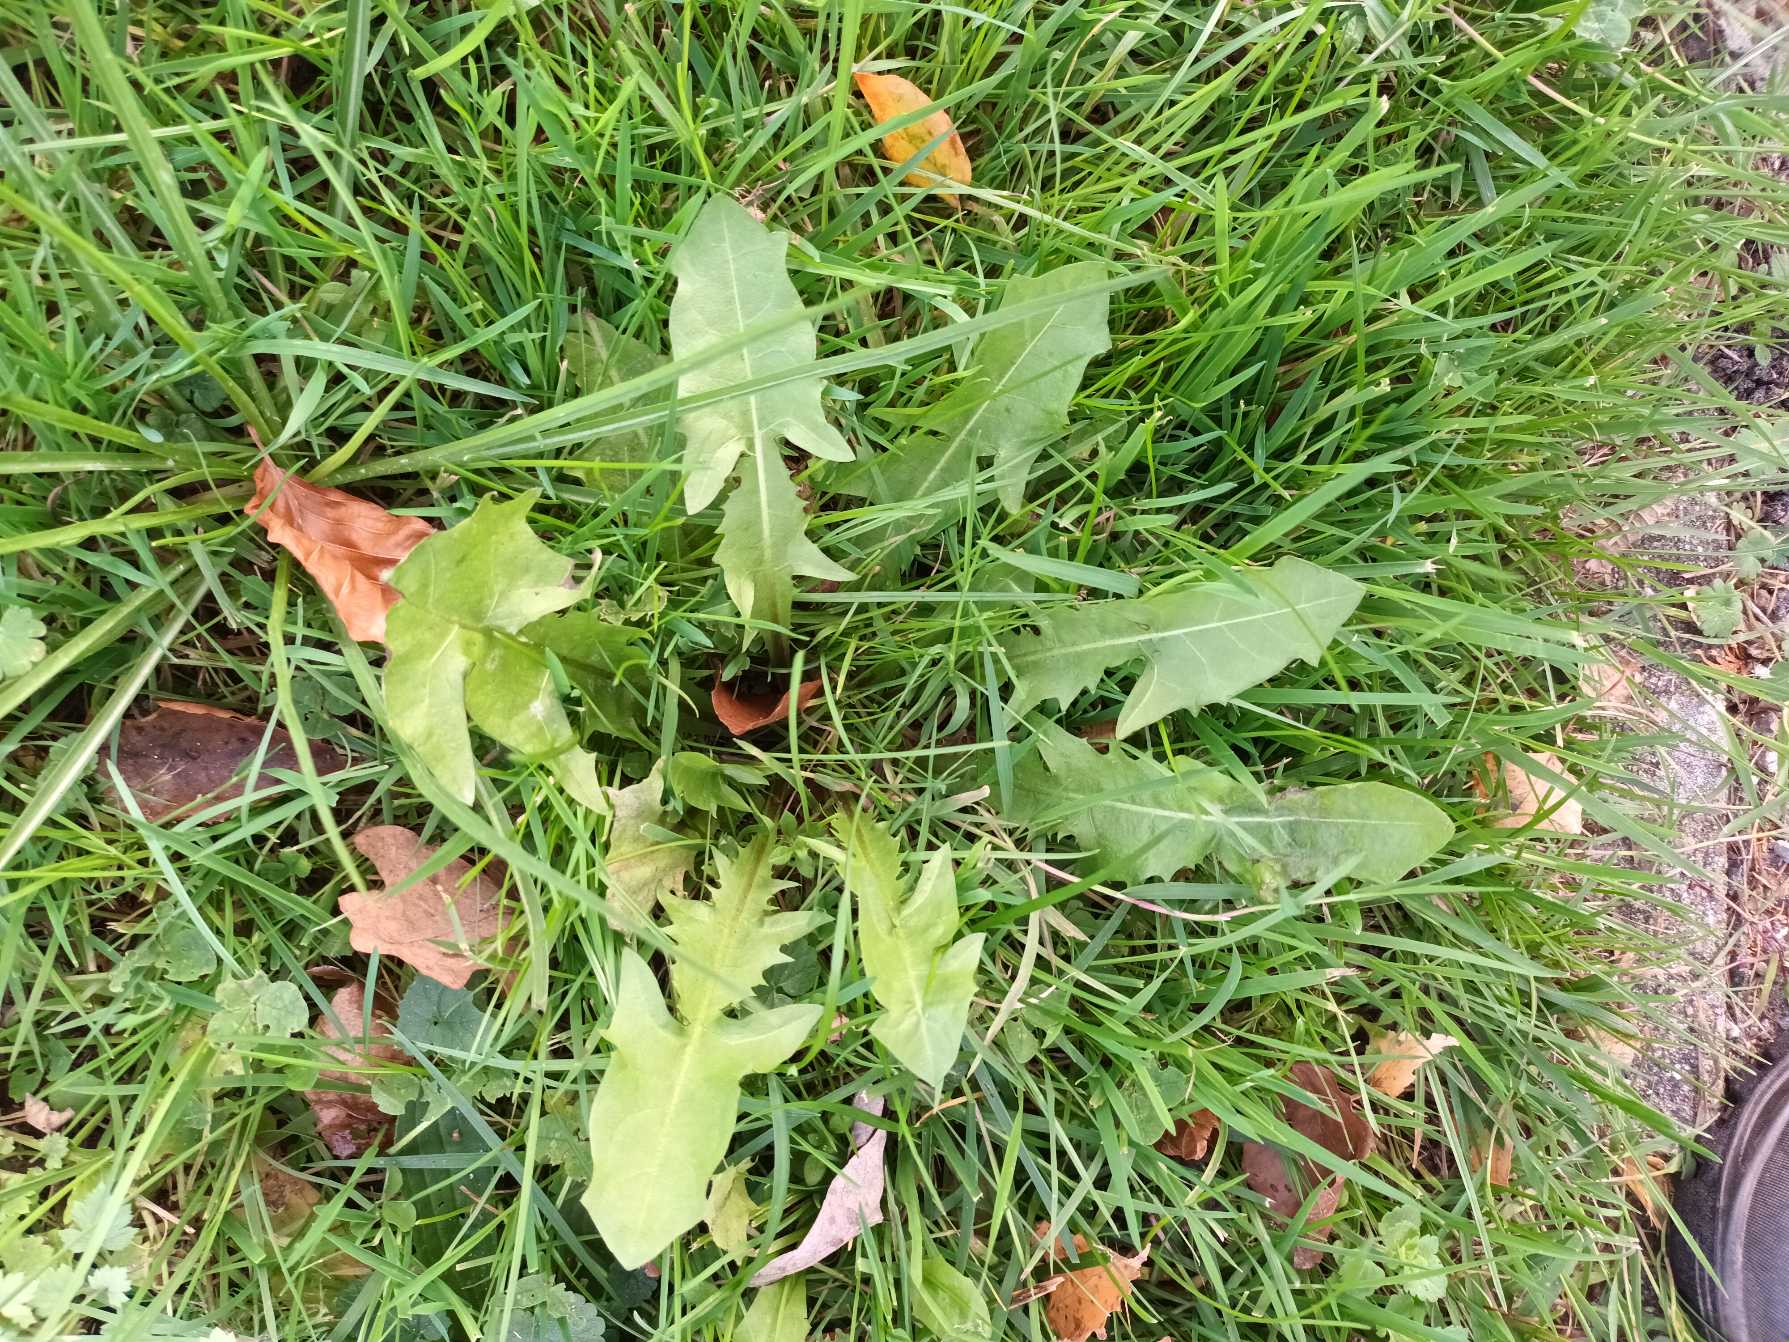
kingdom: Plantae
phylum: Tracheophyta
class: Magnoliopsida
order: Asterales
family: Asteraceae
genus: Taraxacum
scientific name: Taraxacum
